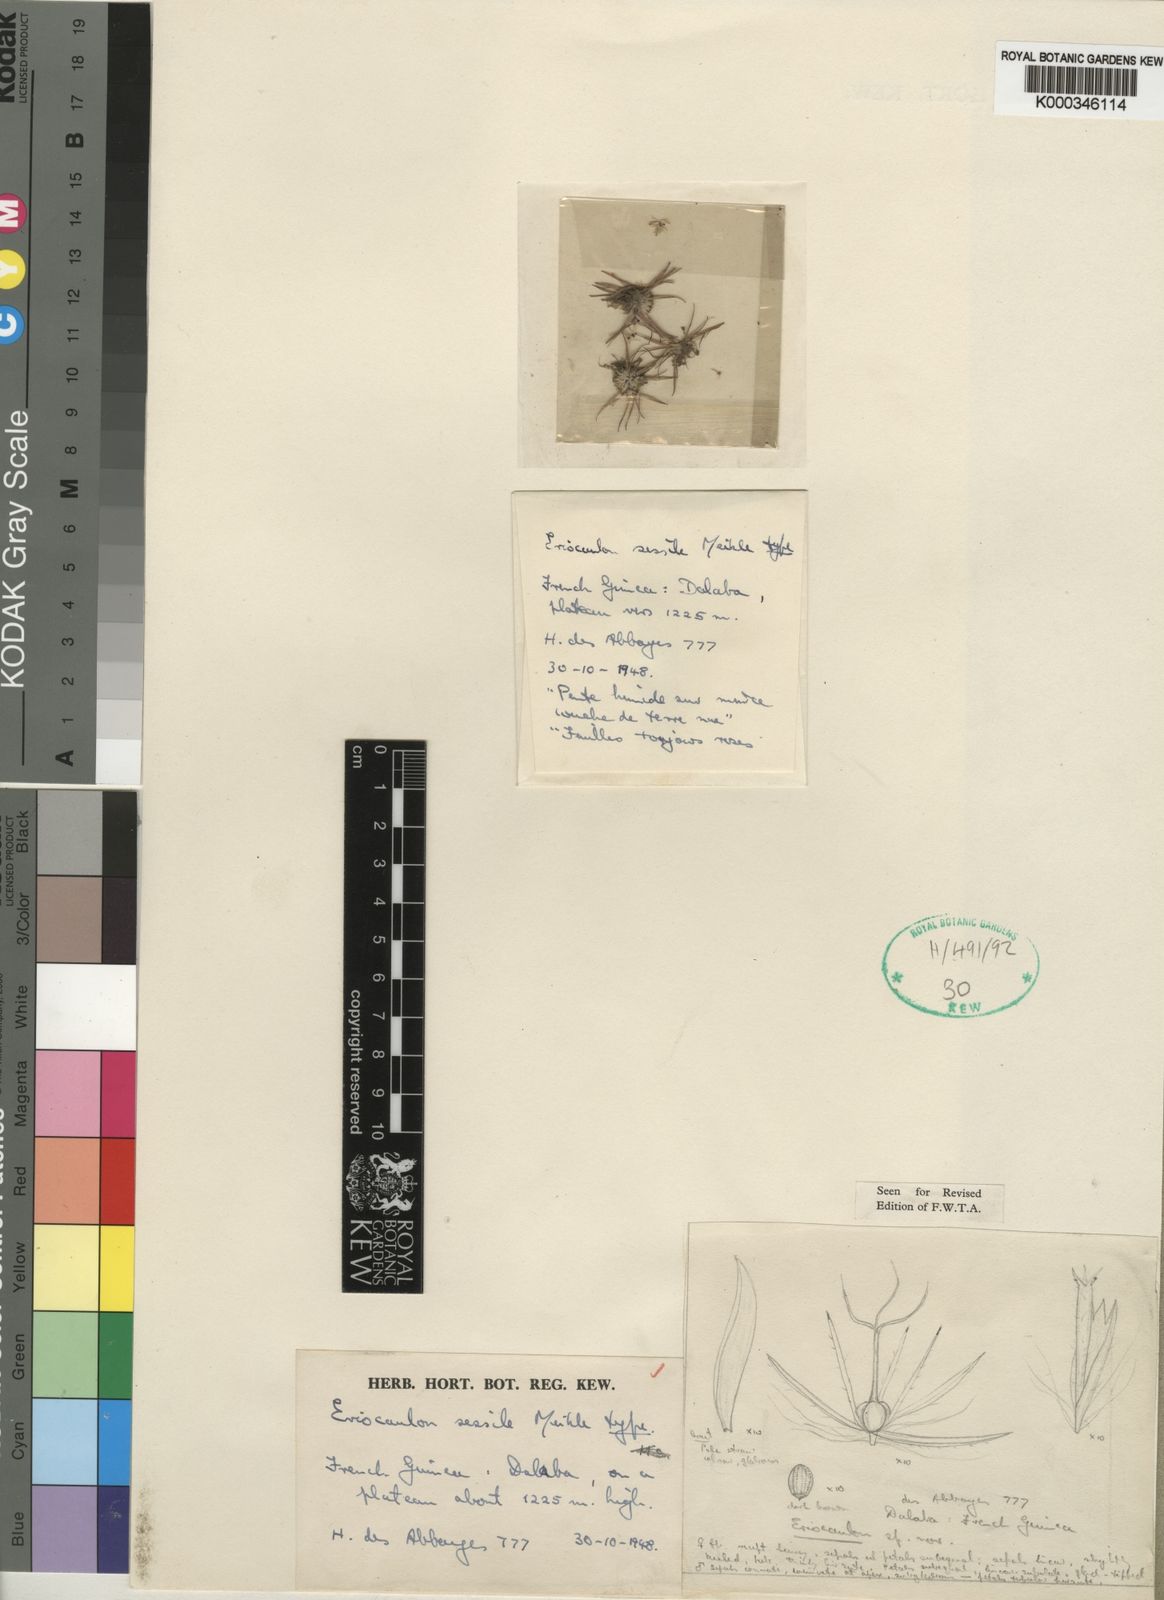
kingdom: Plantae
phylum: Tracheophyta
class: Liliopsida
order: Poales
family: Eriocaulaceae
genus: Eriocaulon
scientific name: Eriocaulon sessile
